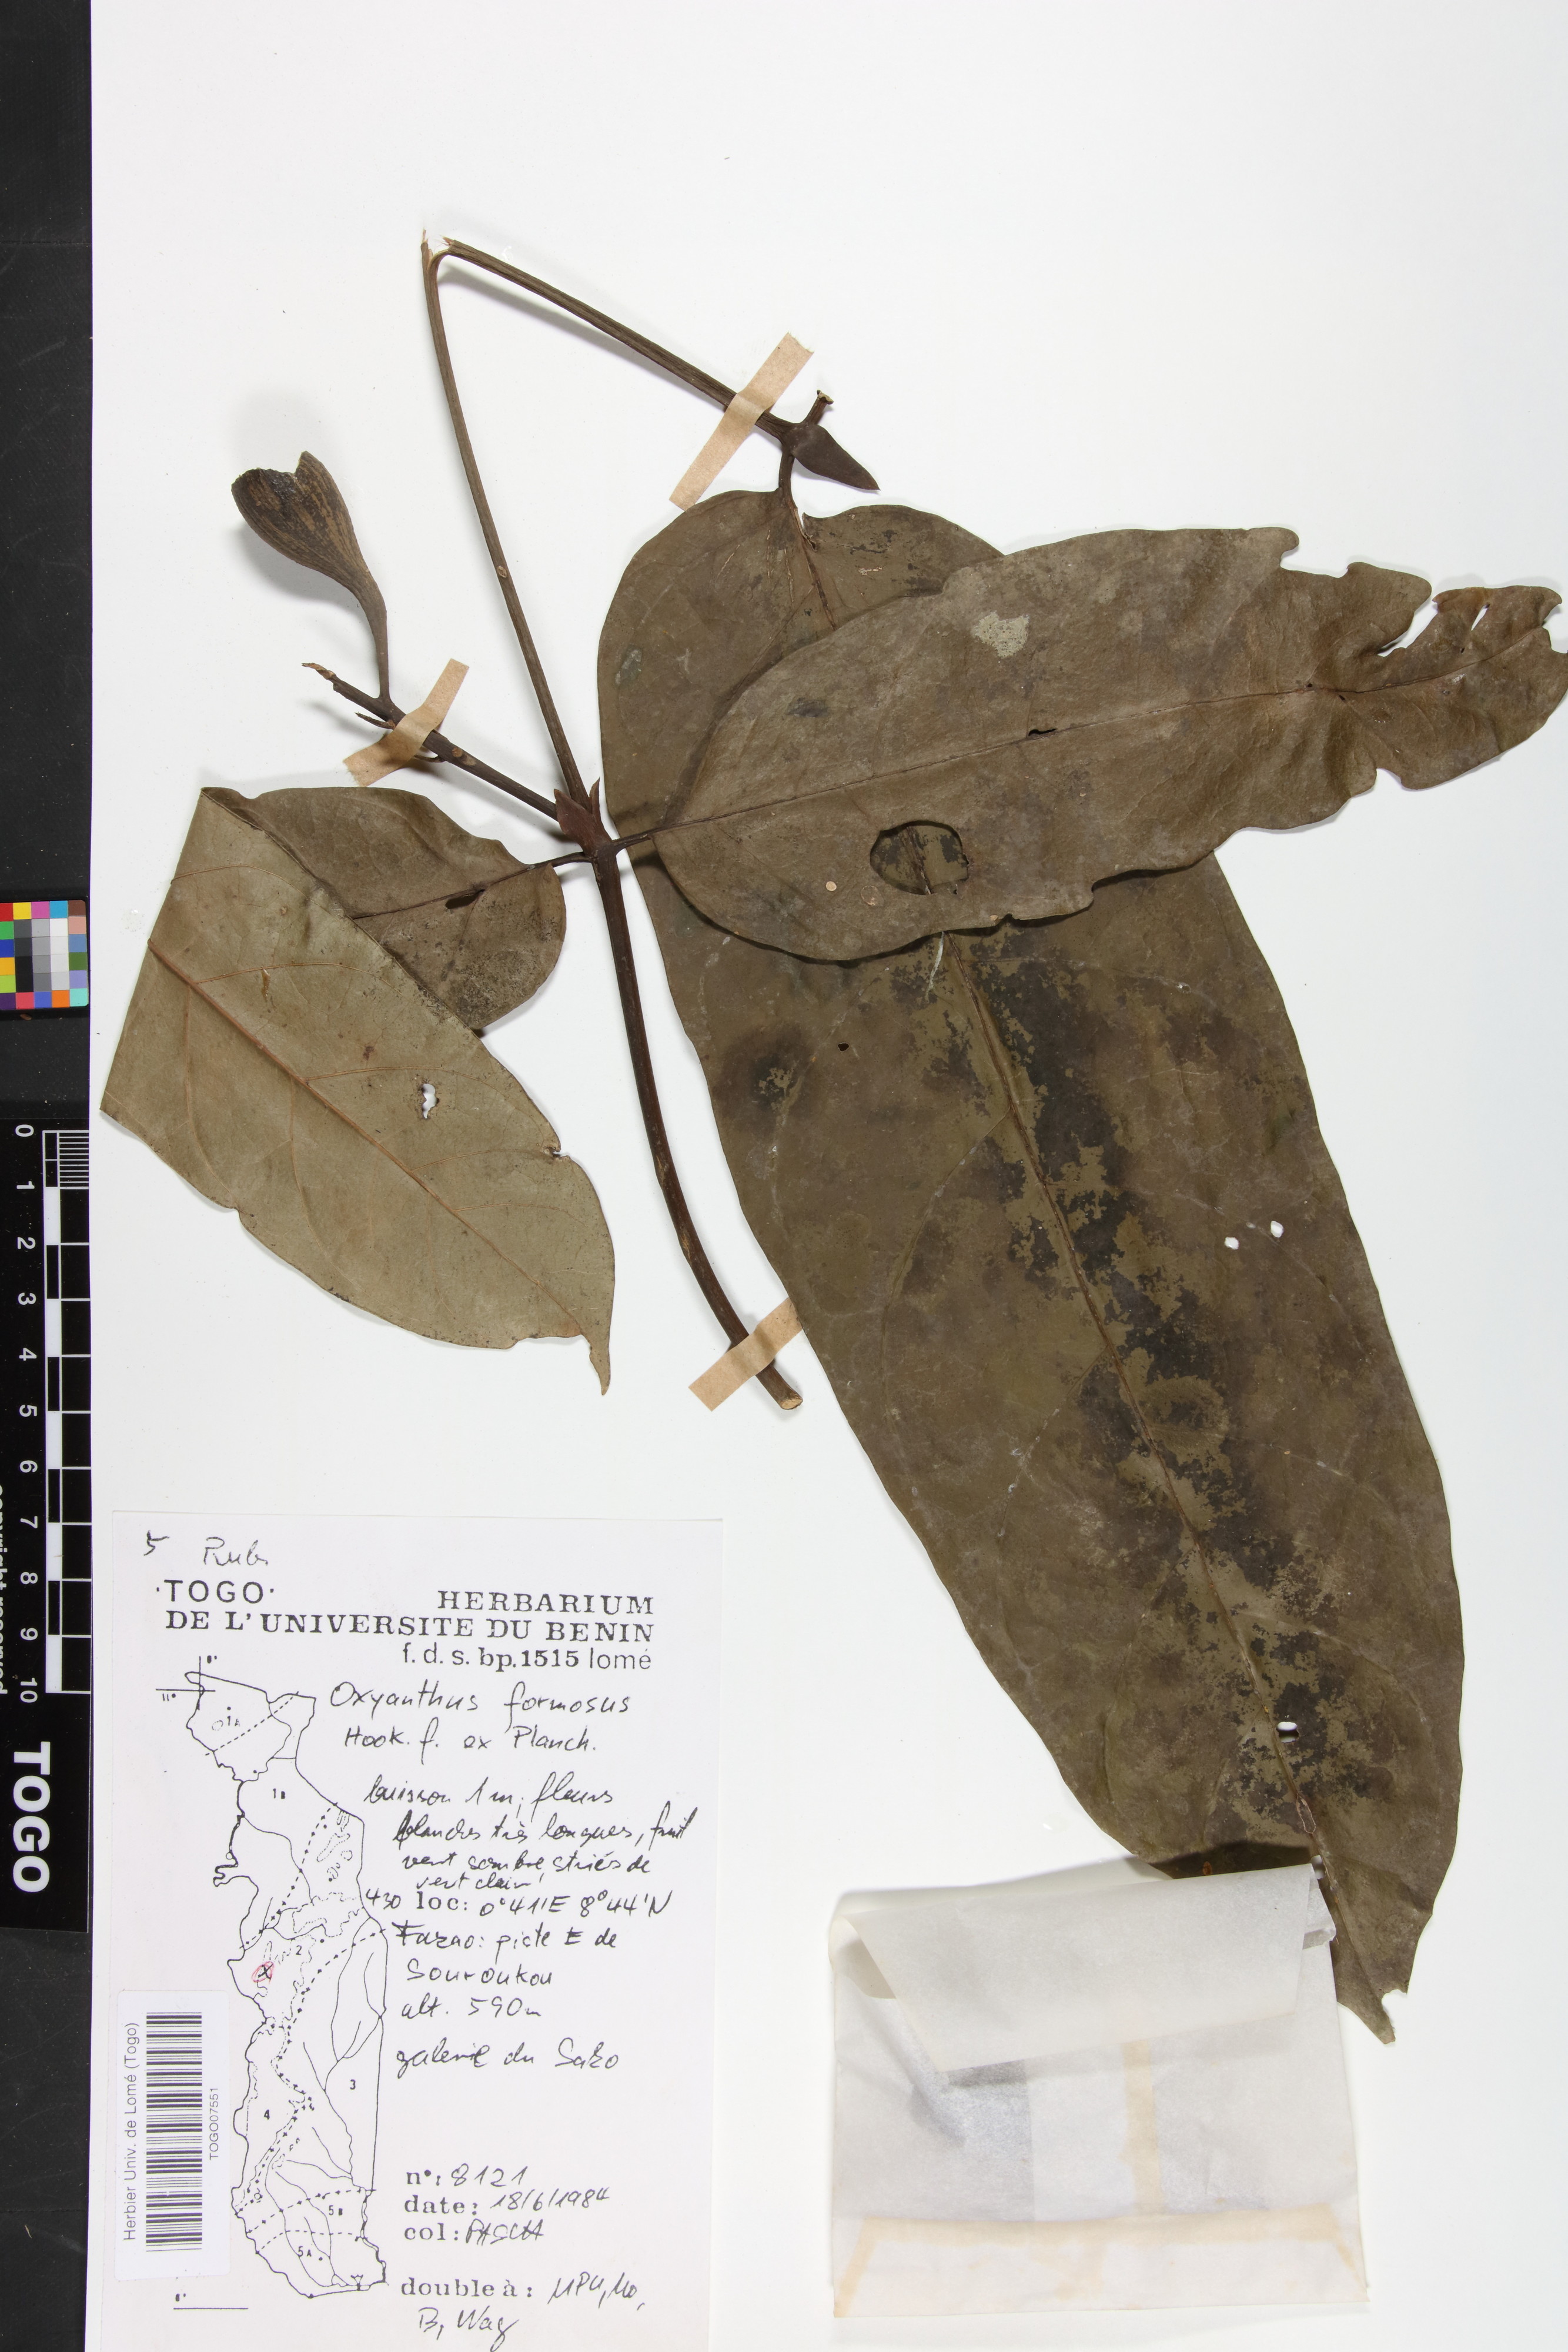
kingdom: Plantae
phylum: Tracheophyta
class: Magnoliopsida
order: Gentianales
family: Rubiaceae
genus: Oxyanthus
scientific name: Oxyanthus formosus
